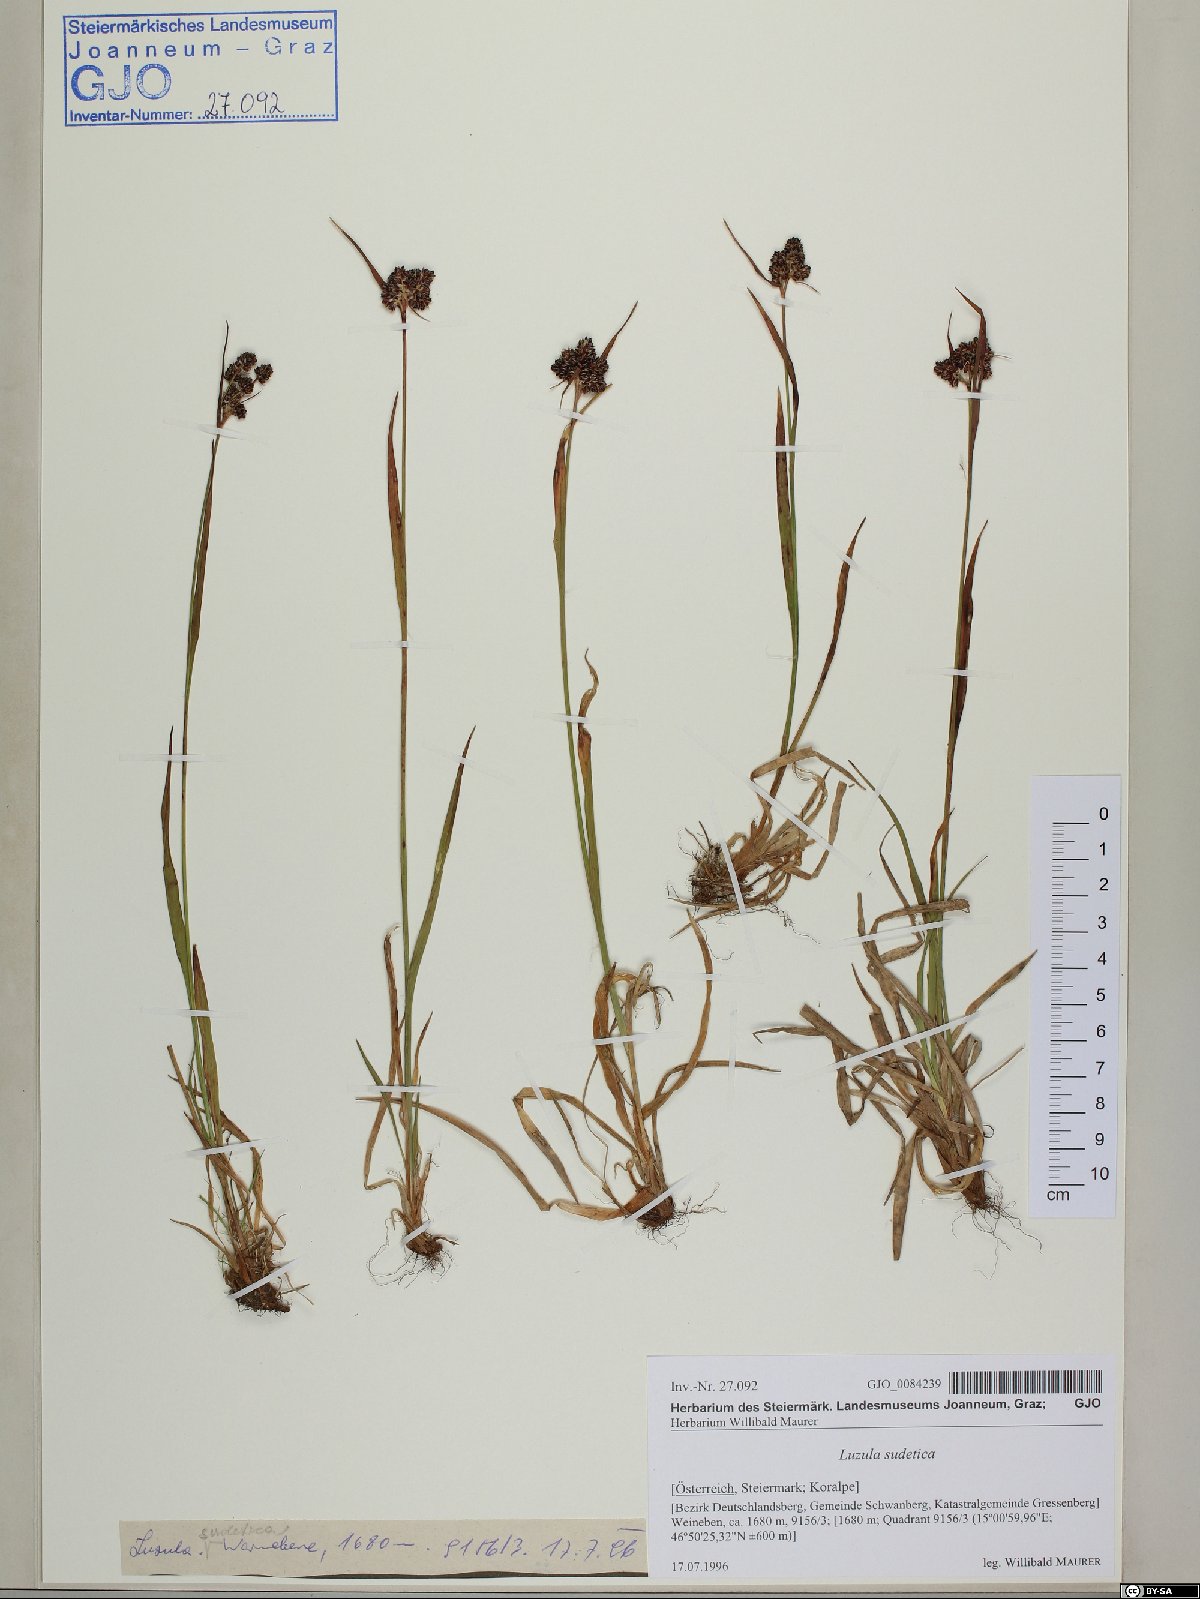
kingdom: Plantae
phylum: Tracheophyta
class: Liliopsida
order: Poales
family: Juncaceae
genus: Luzula
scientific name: Luzula sudetica
